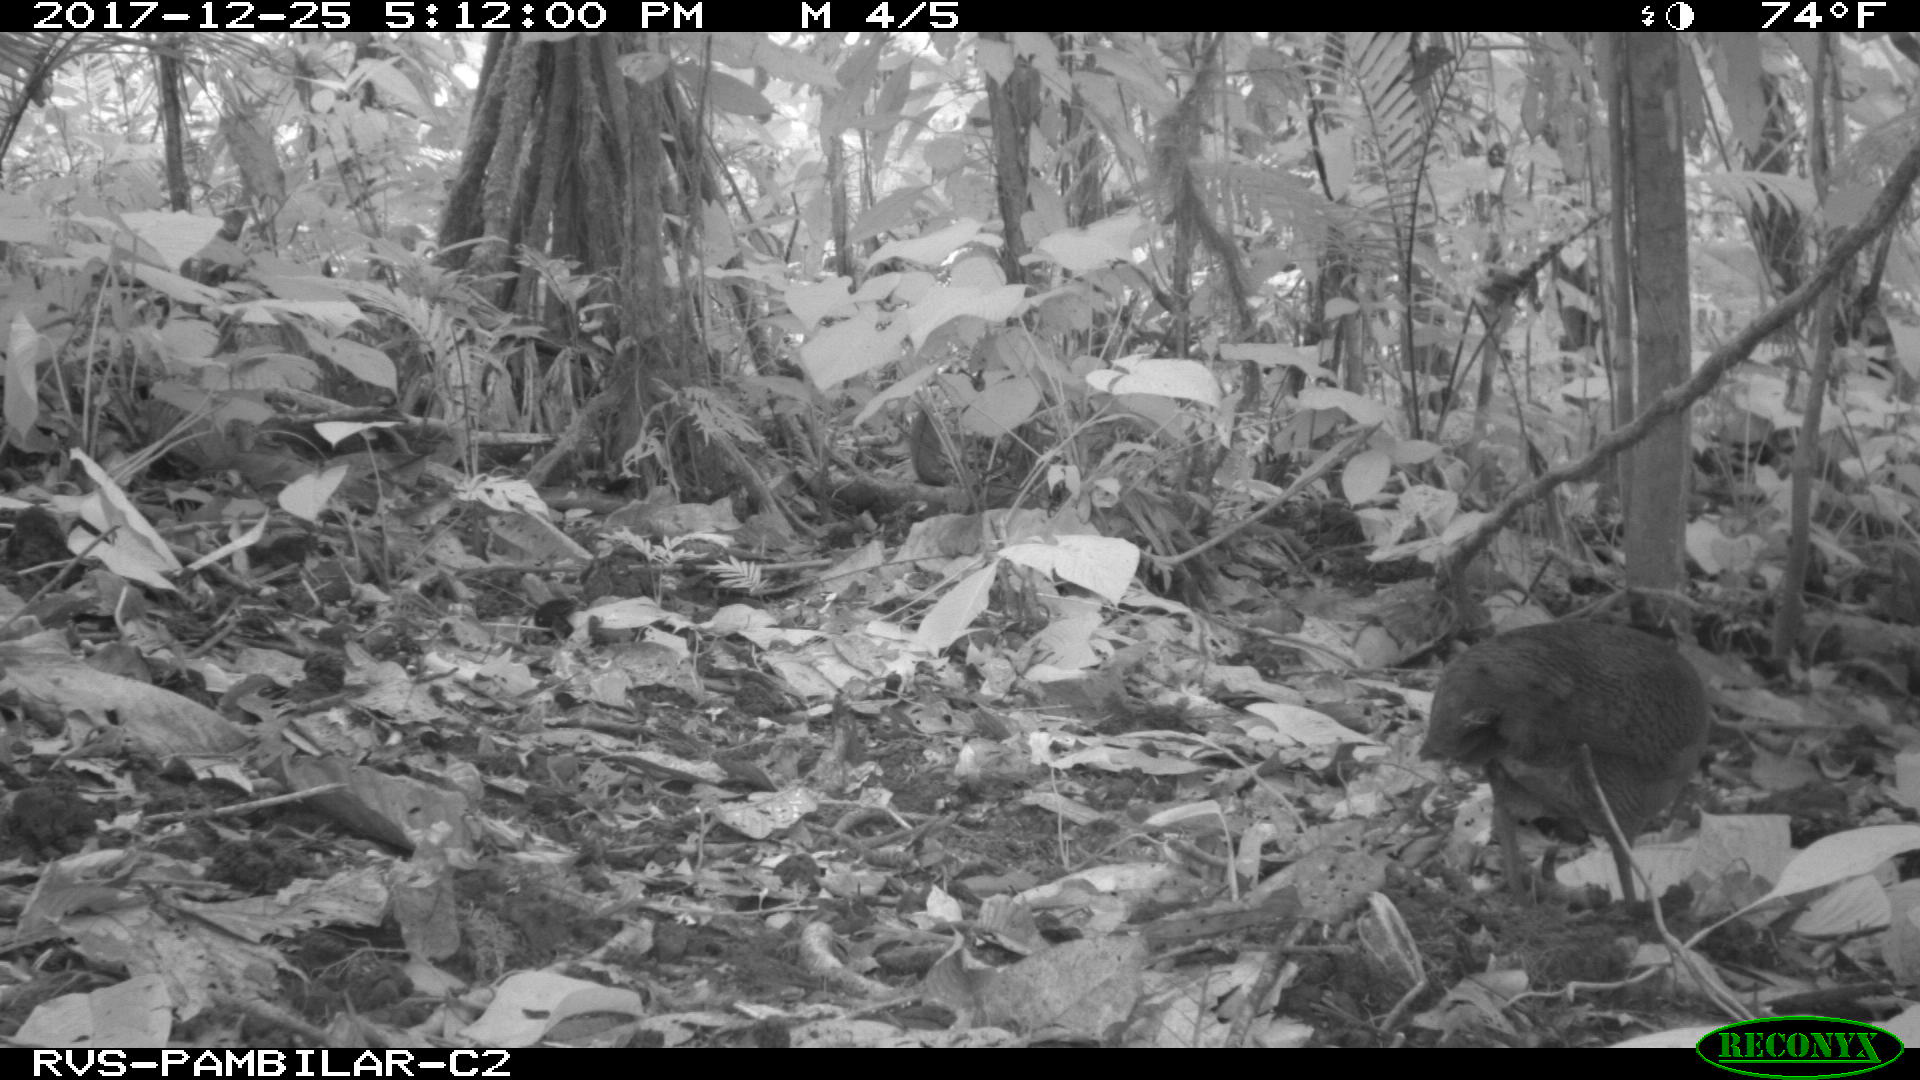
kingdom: Animalia
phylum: Chordata
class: Aves
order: Tinamiformes
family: Tinamidae
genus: Tinamus
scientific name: Tinamus major
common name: Great tinamou
